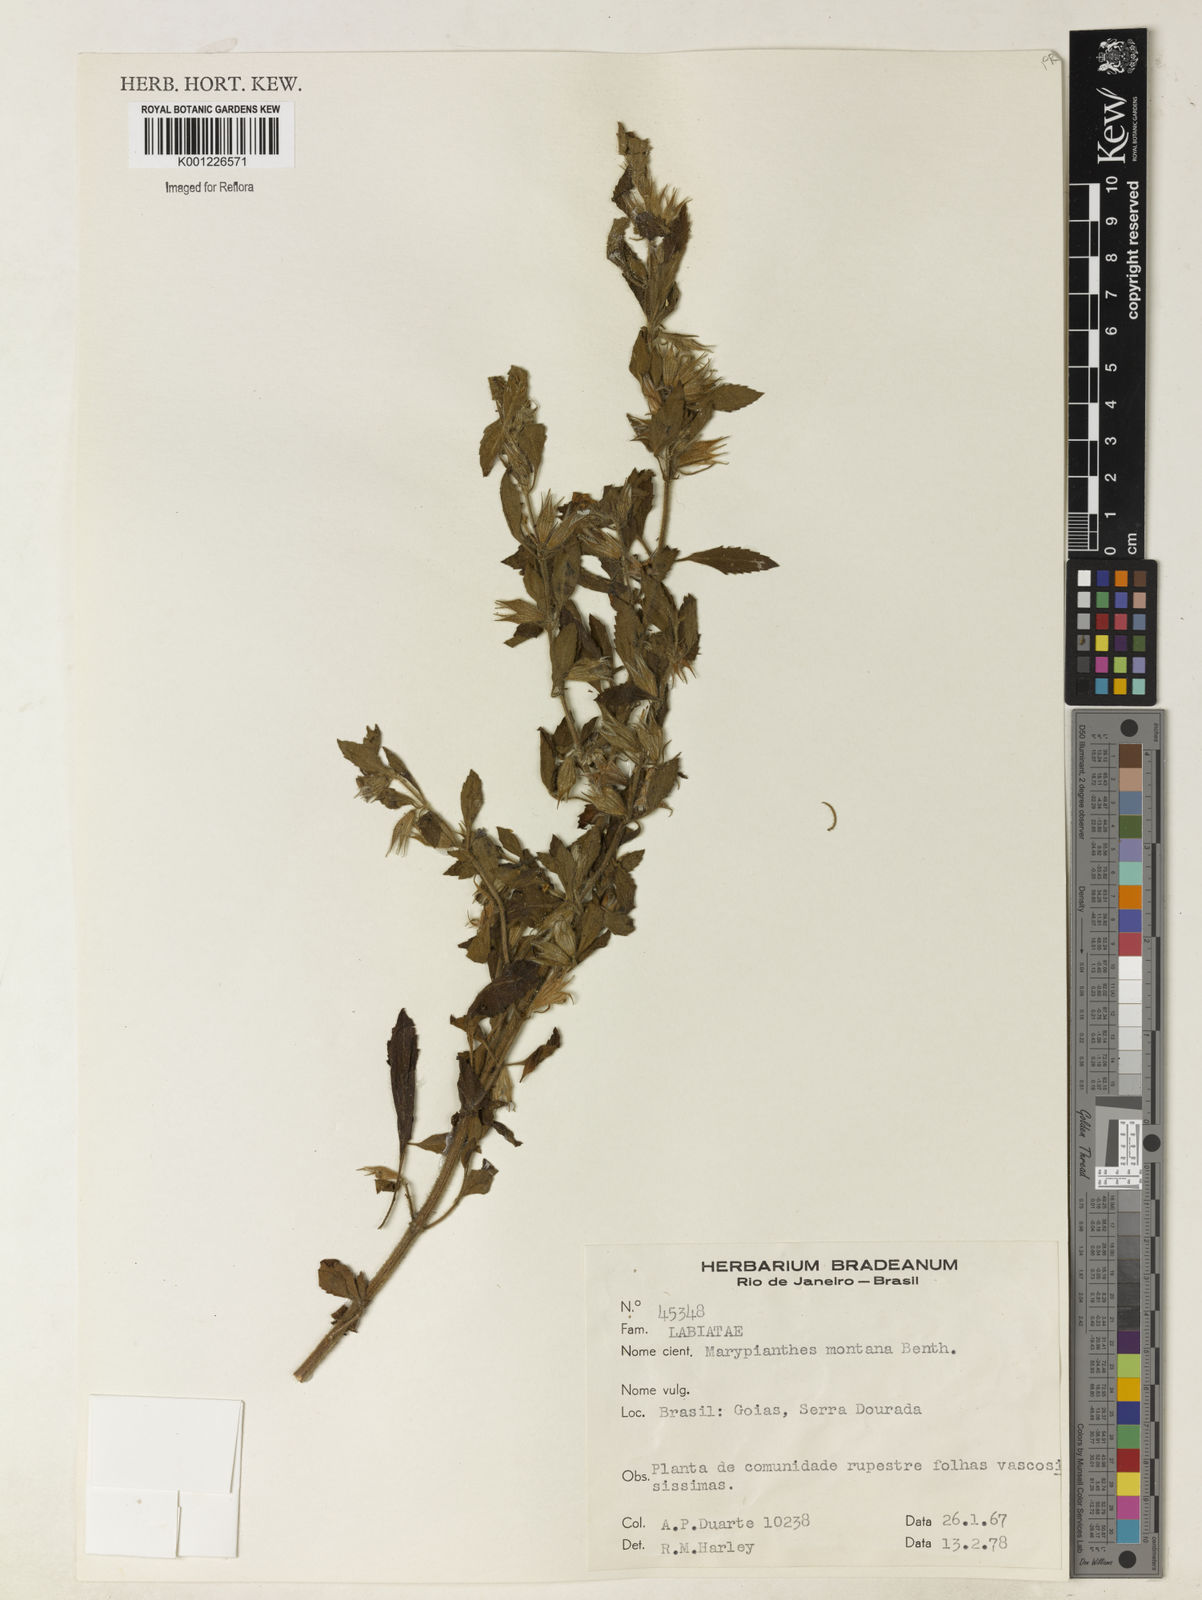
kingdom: Plantae
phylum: Tracheophyta
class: Magnoliopsida
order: Lamiales
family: Lamiaceae
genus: Marsypianthes
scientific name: Marsypianthes burchellii
